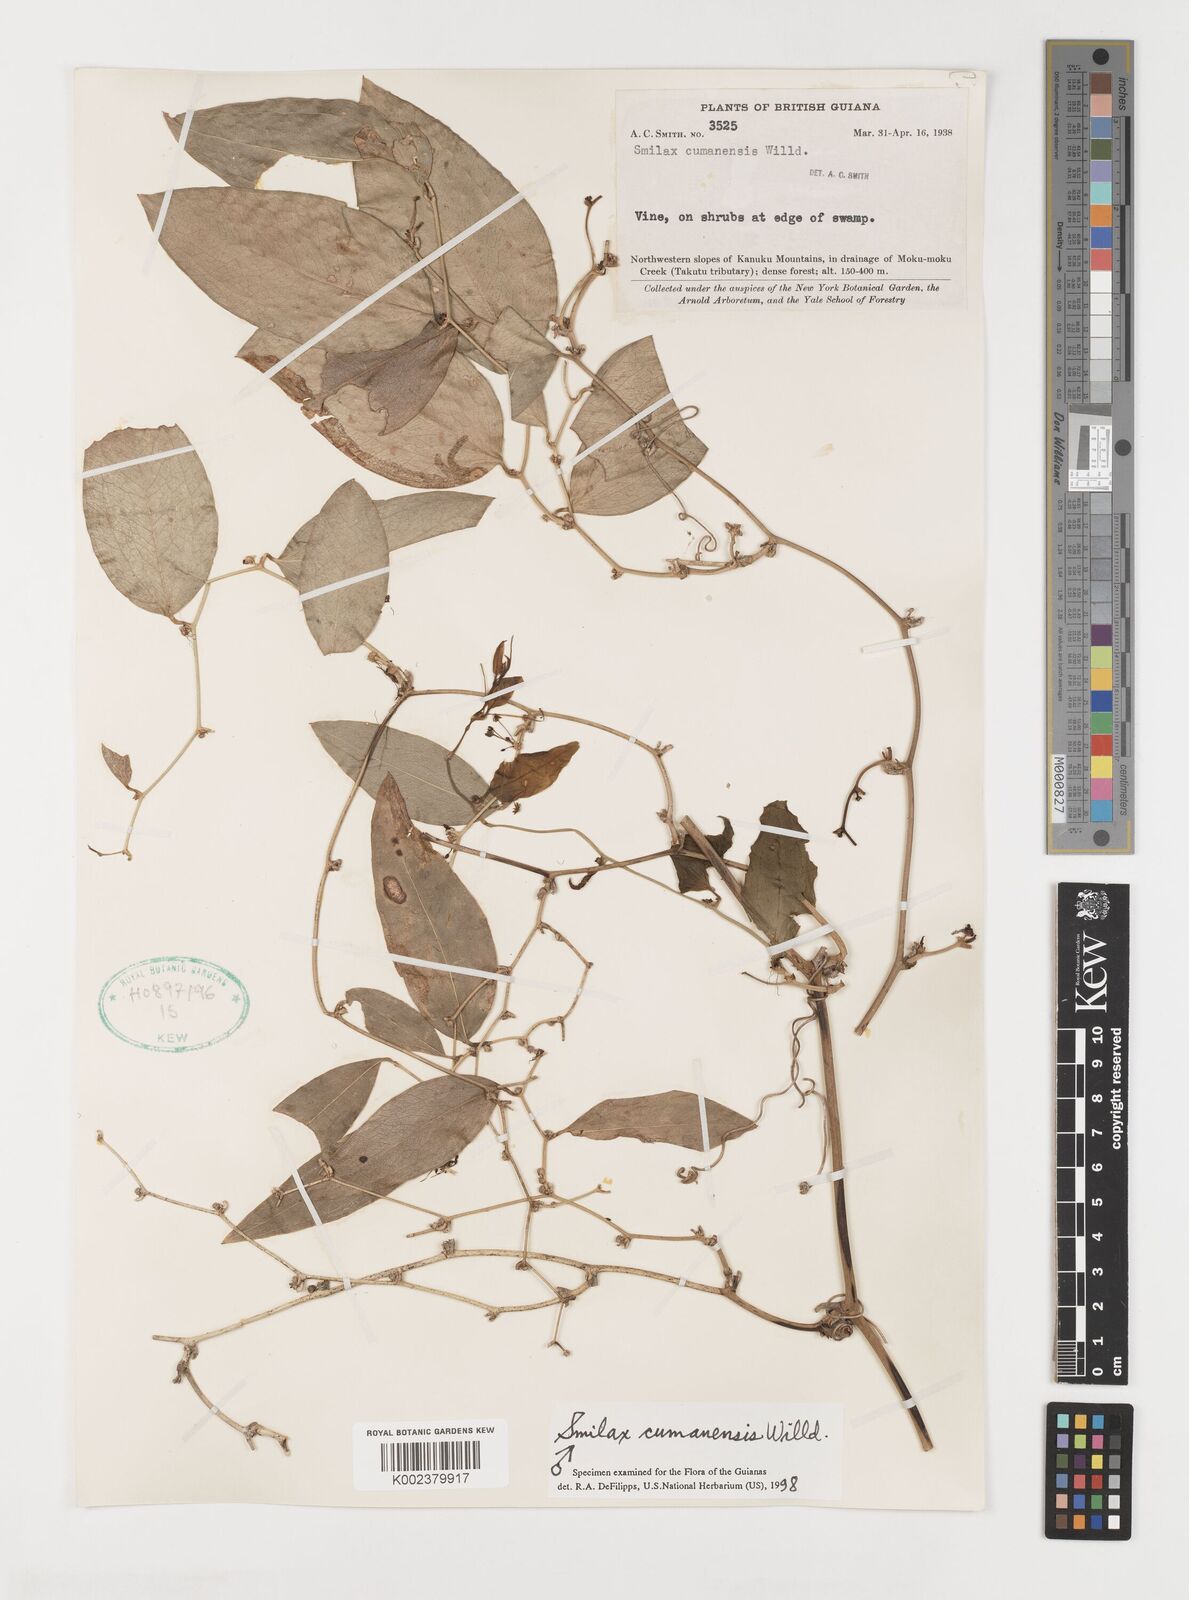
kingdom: Plantae
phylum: Tracheophyta
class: Liliopsida
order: Liliales
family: Smilacaceae
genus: Smilax
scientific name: Smilax oblongata
